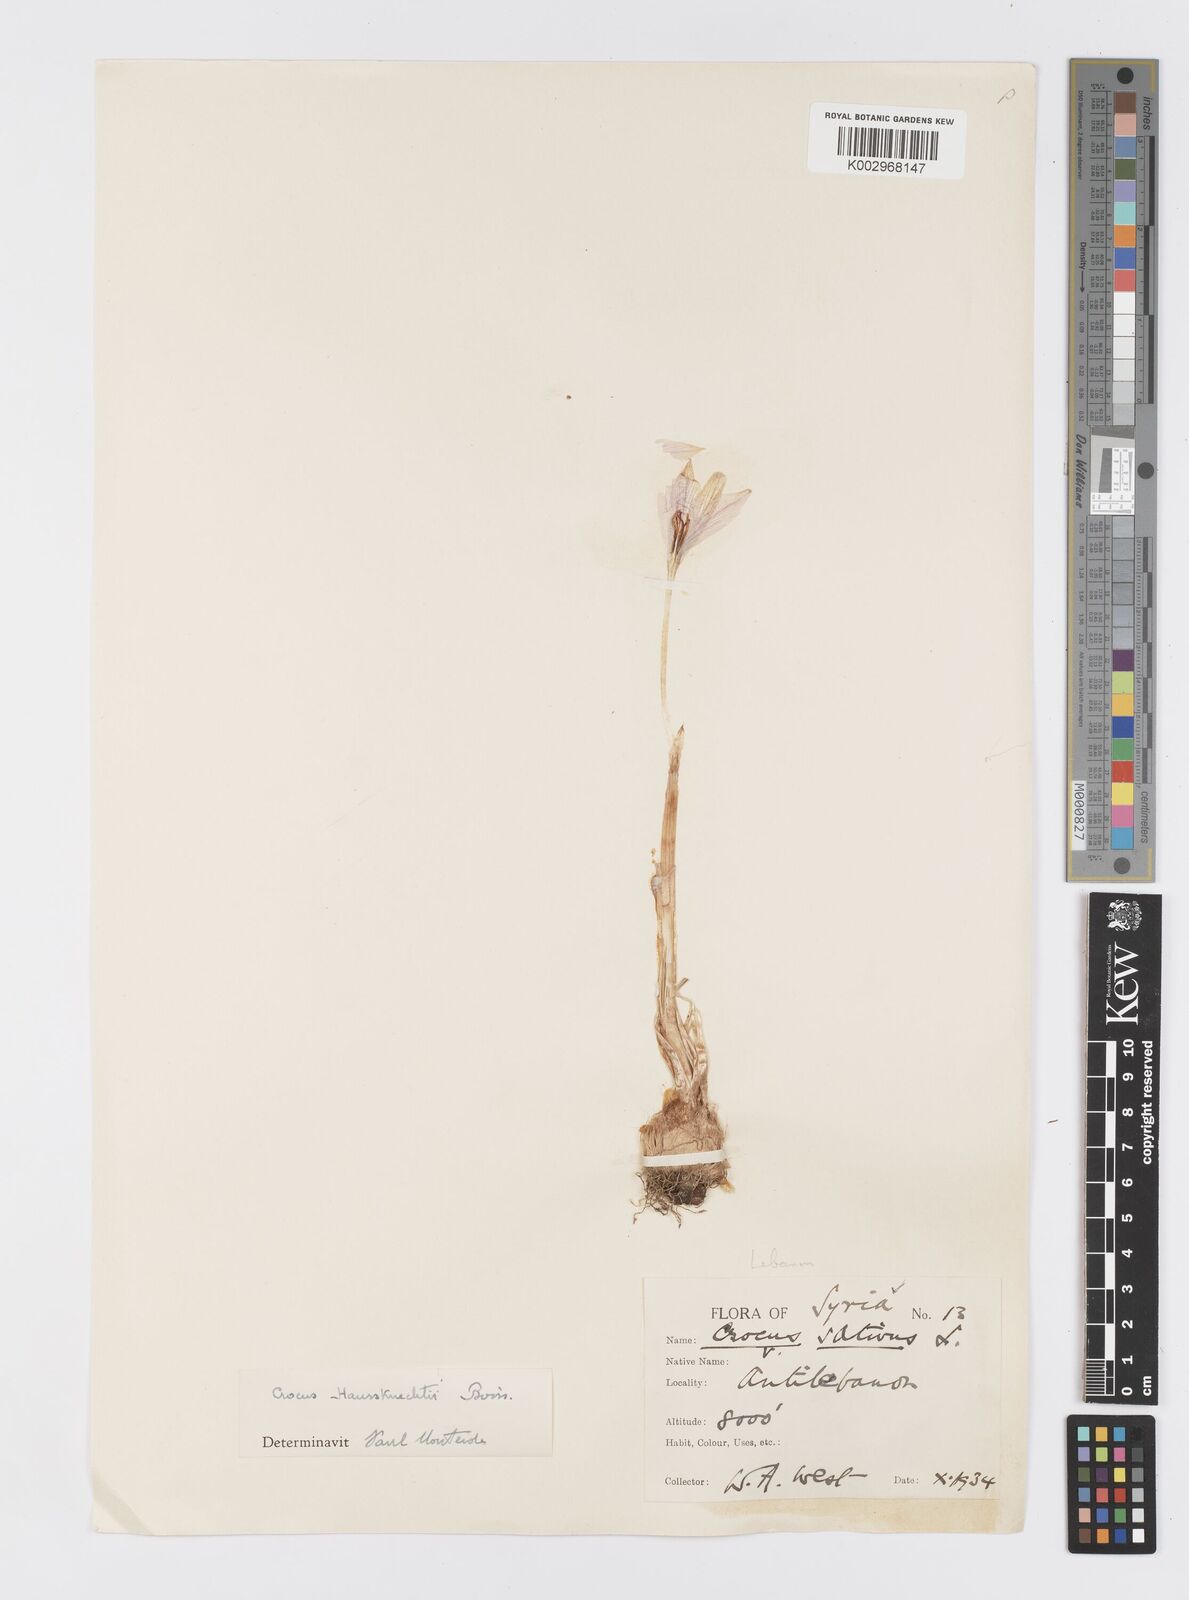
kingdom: Plantae
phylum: Tracheophyta
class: Liliopsida
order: Asparagales
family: Iridaceae
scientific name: Iridaceae
